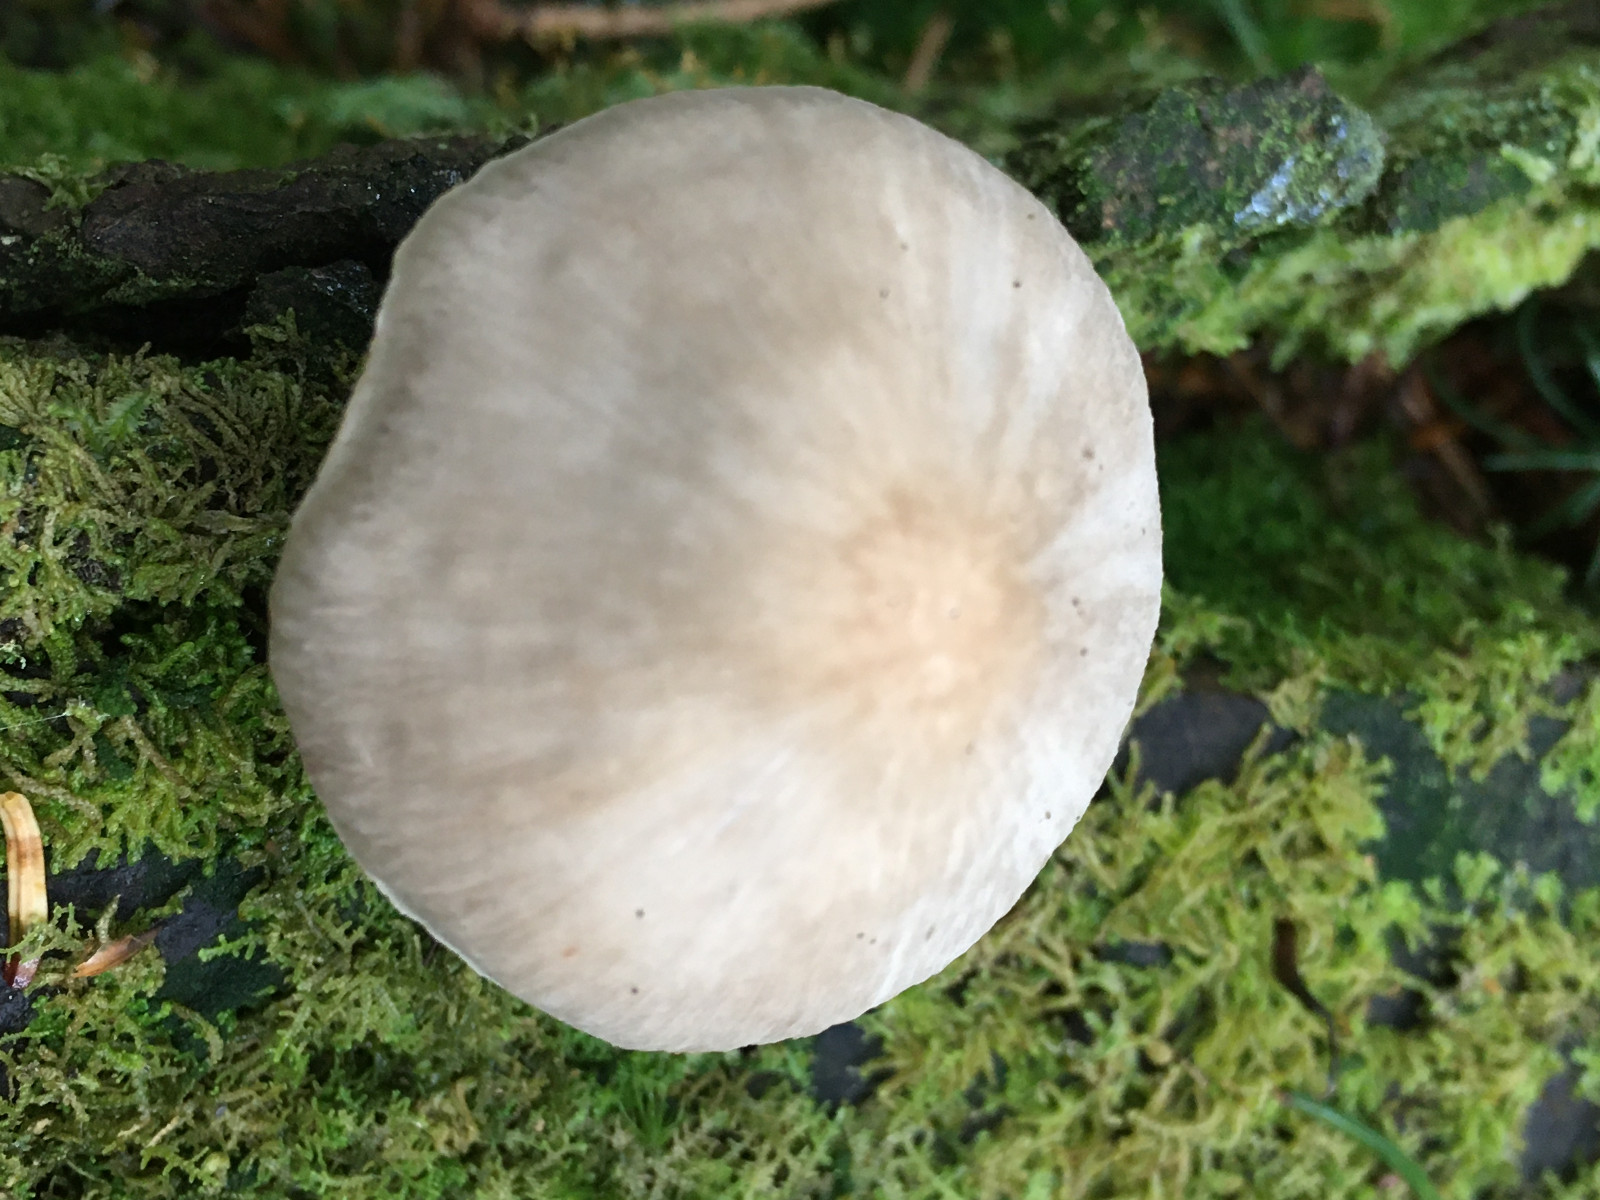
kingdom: Fungi
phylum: Basidiomycota
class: Agaricomycetes
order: Agaricales
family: Mycenaceae
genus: Mycena
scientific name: Mycena galericulata
